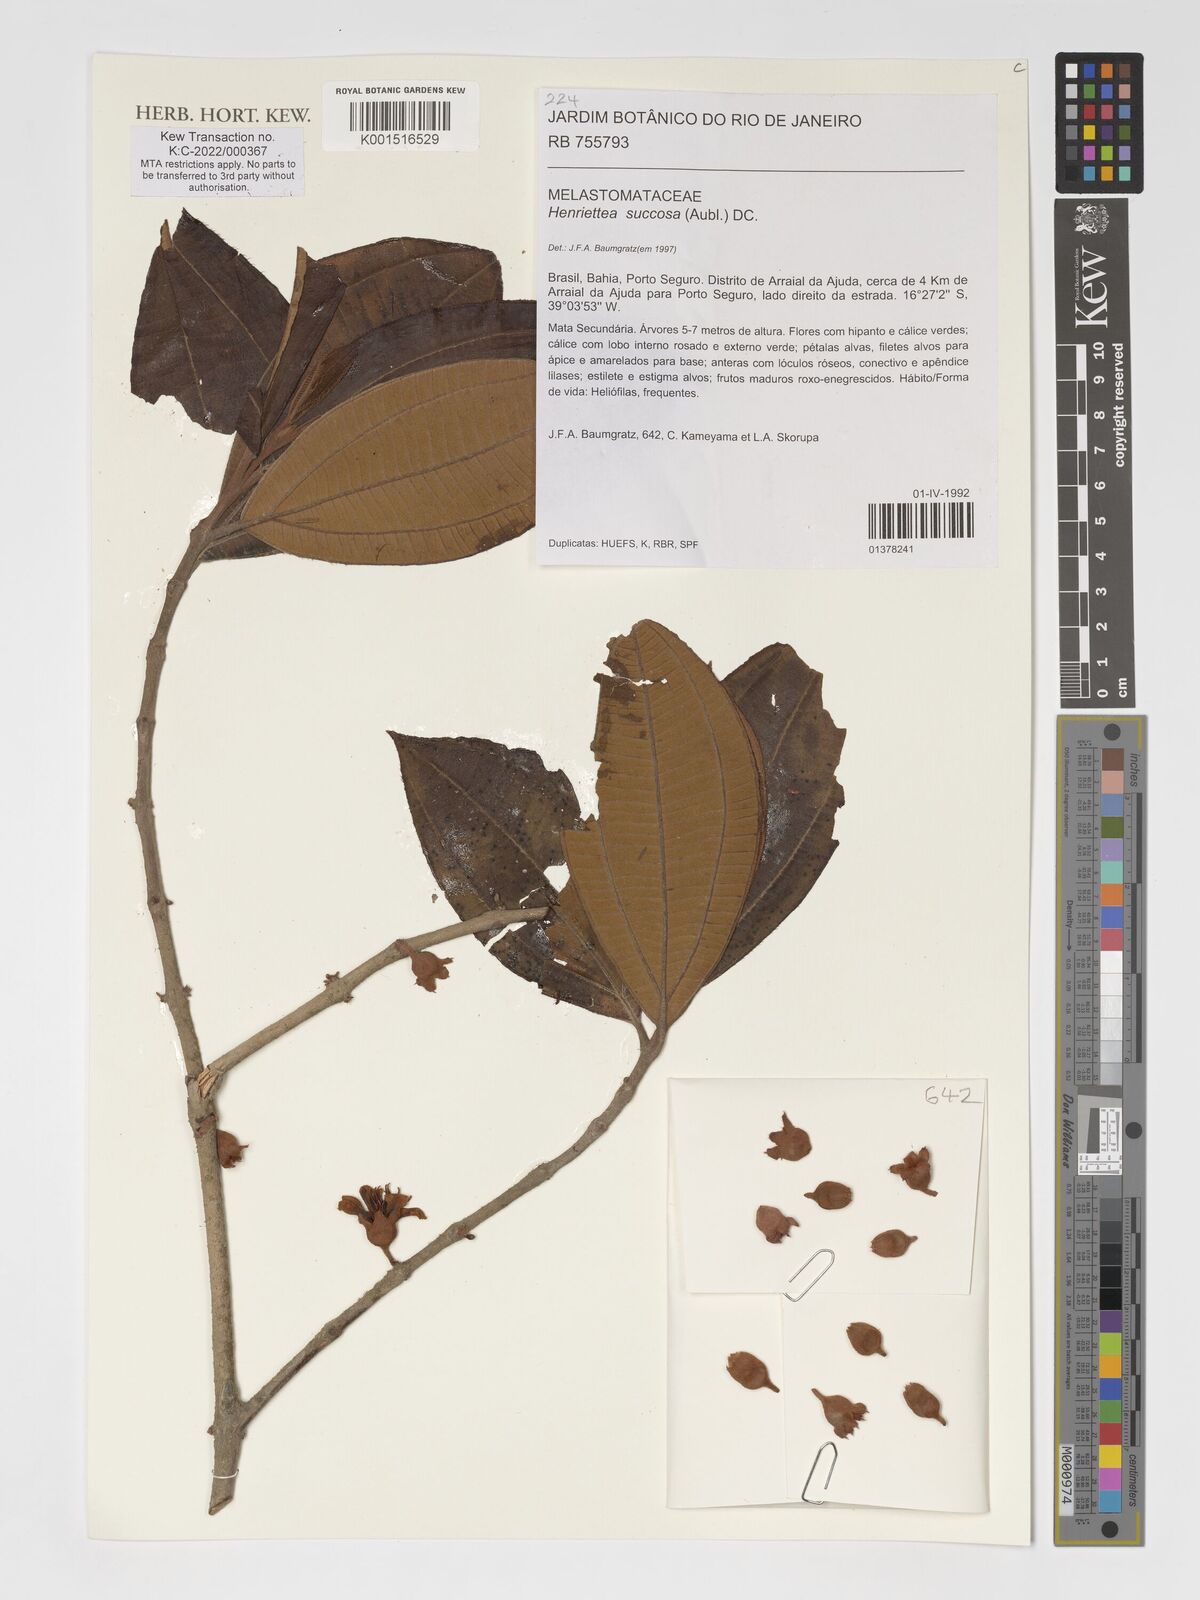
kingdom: Plantae
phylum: Tracheophyta
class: Magnoliopsida
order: Myrtales
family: Melastomataceae
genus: Henriettea
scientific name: Henriettea succosa
